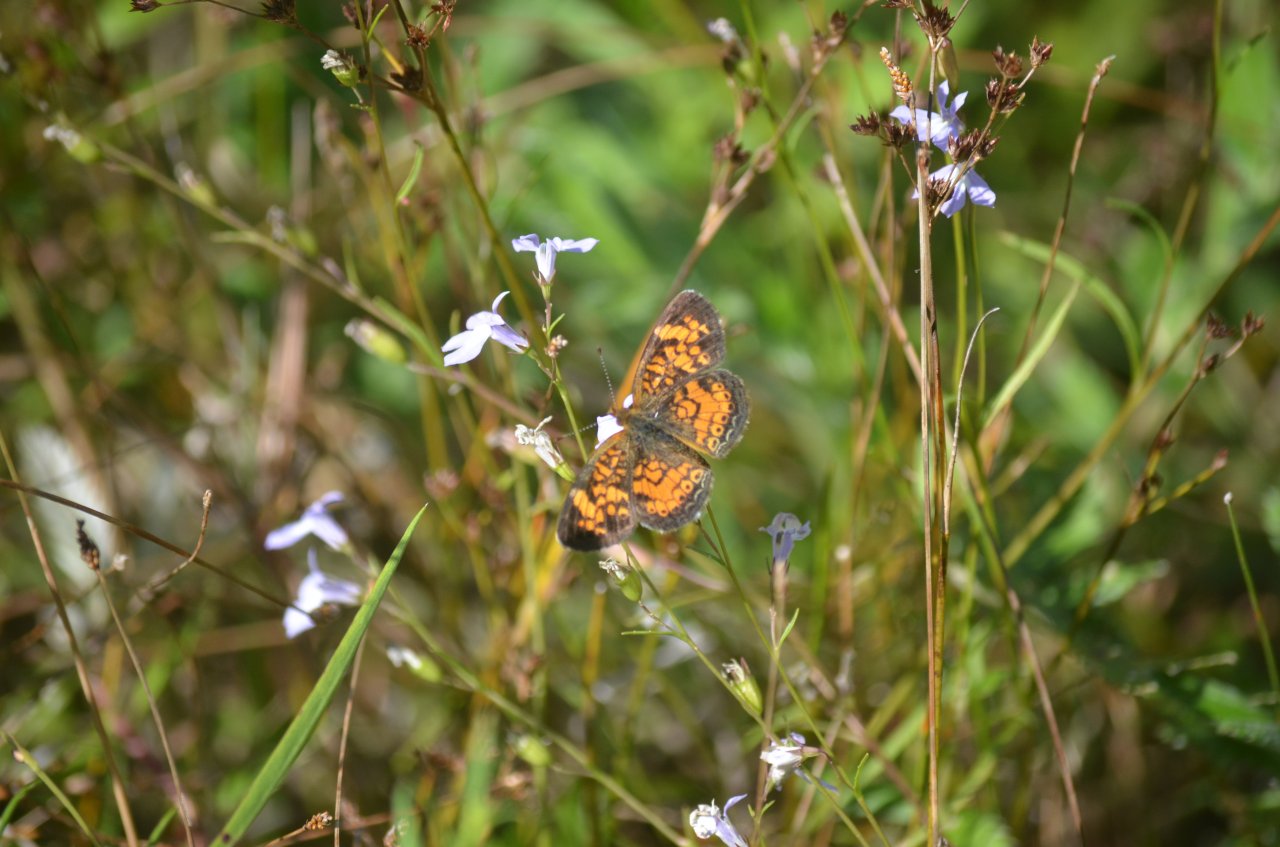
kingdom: Animalia
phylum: Arthropoda
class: Insecta
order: Lepidoptera
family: Nymphalidae
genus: Phyciodes
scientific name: Phyciodes tharos
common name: Northern Crescent
